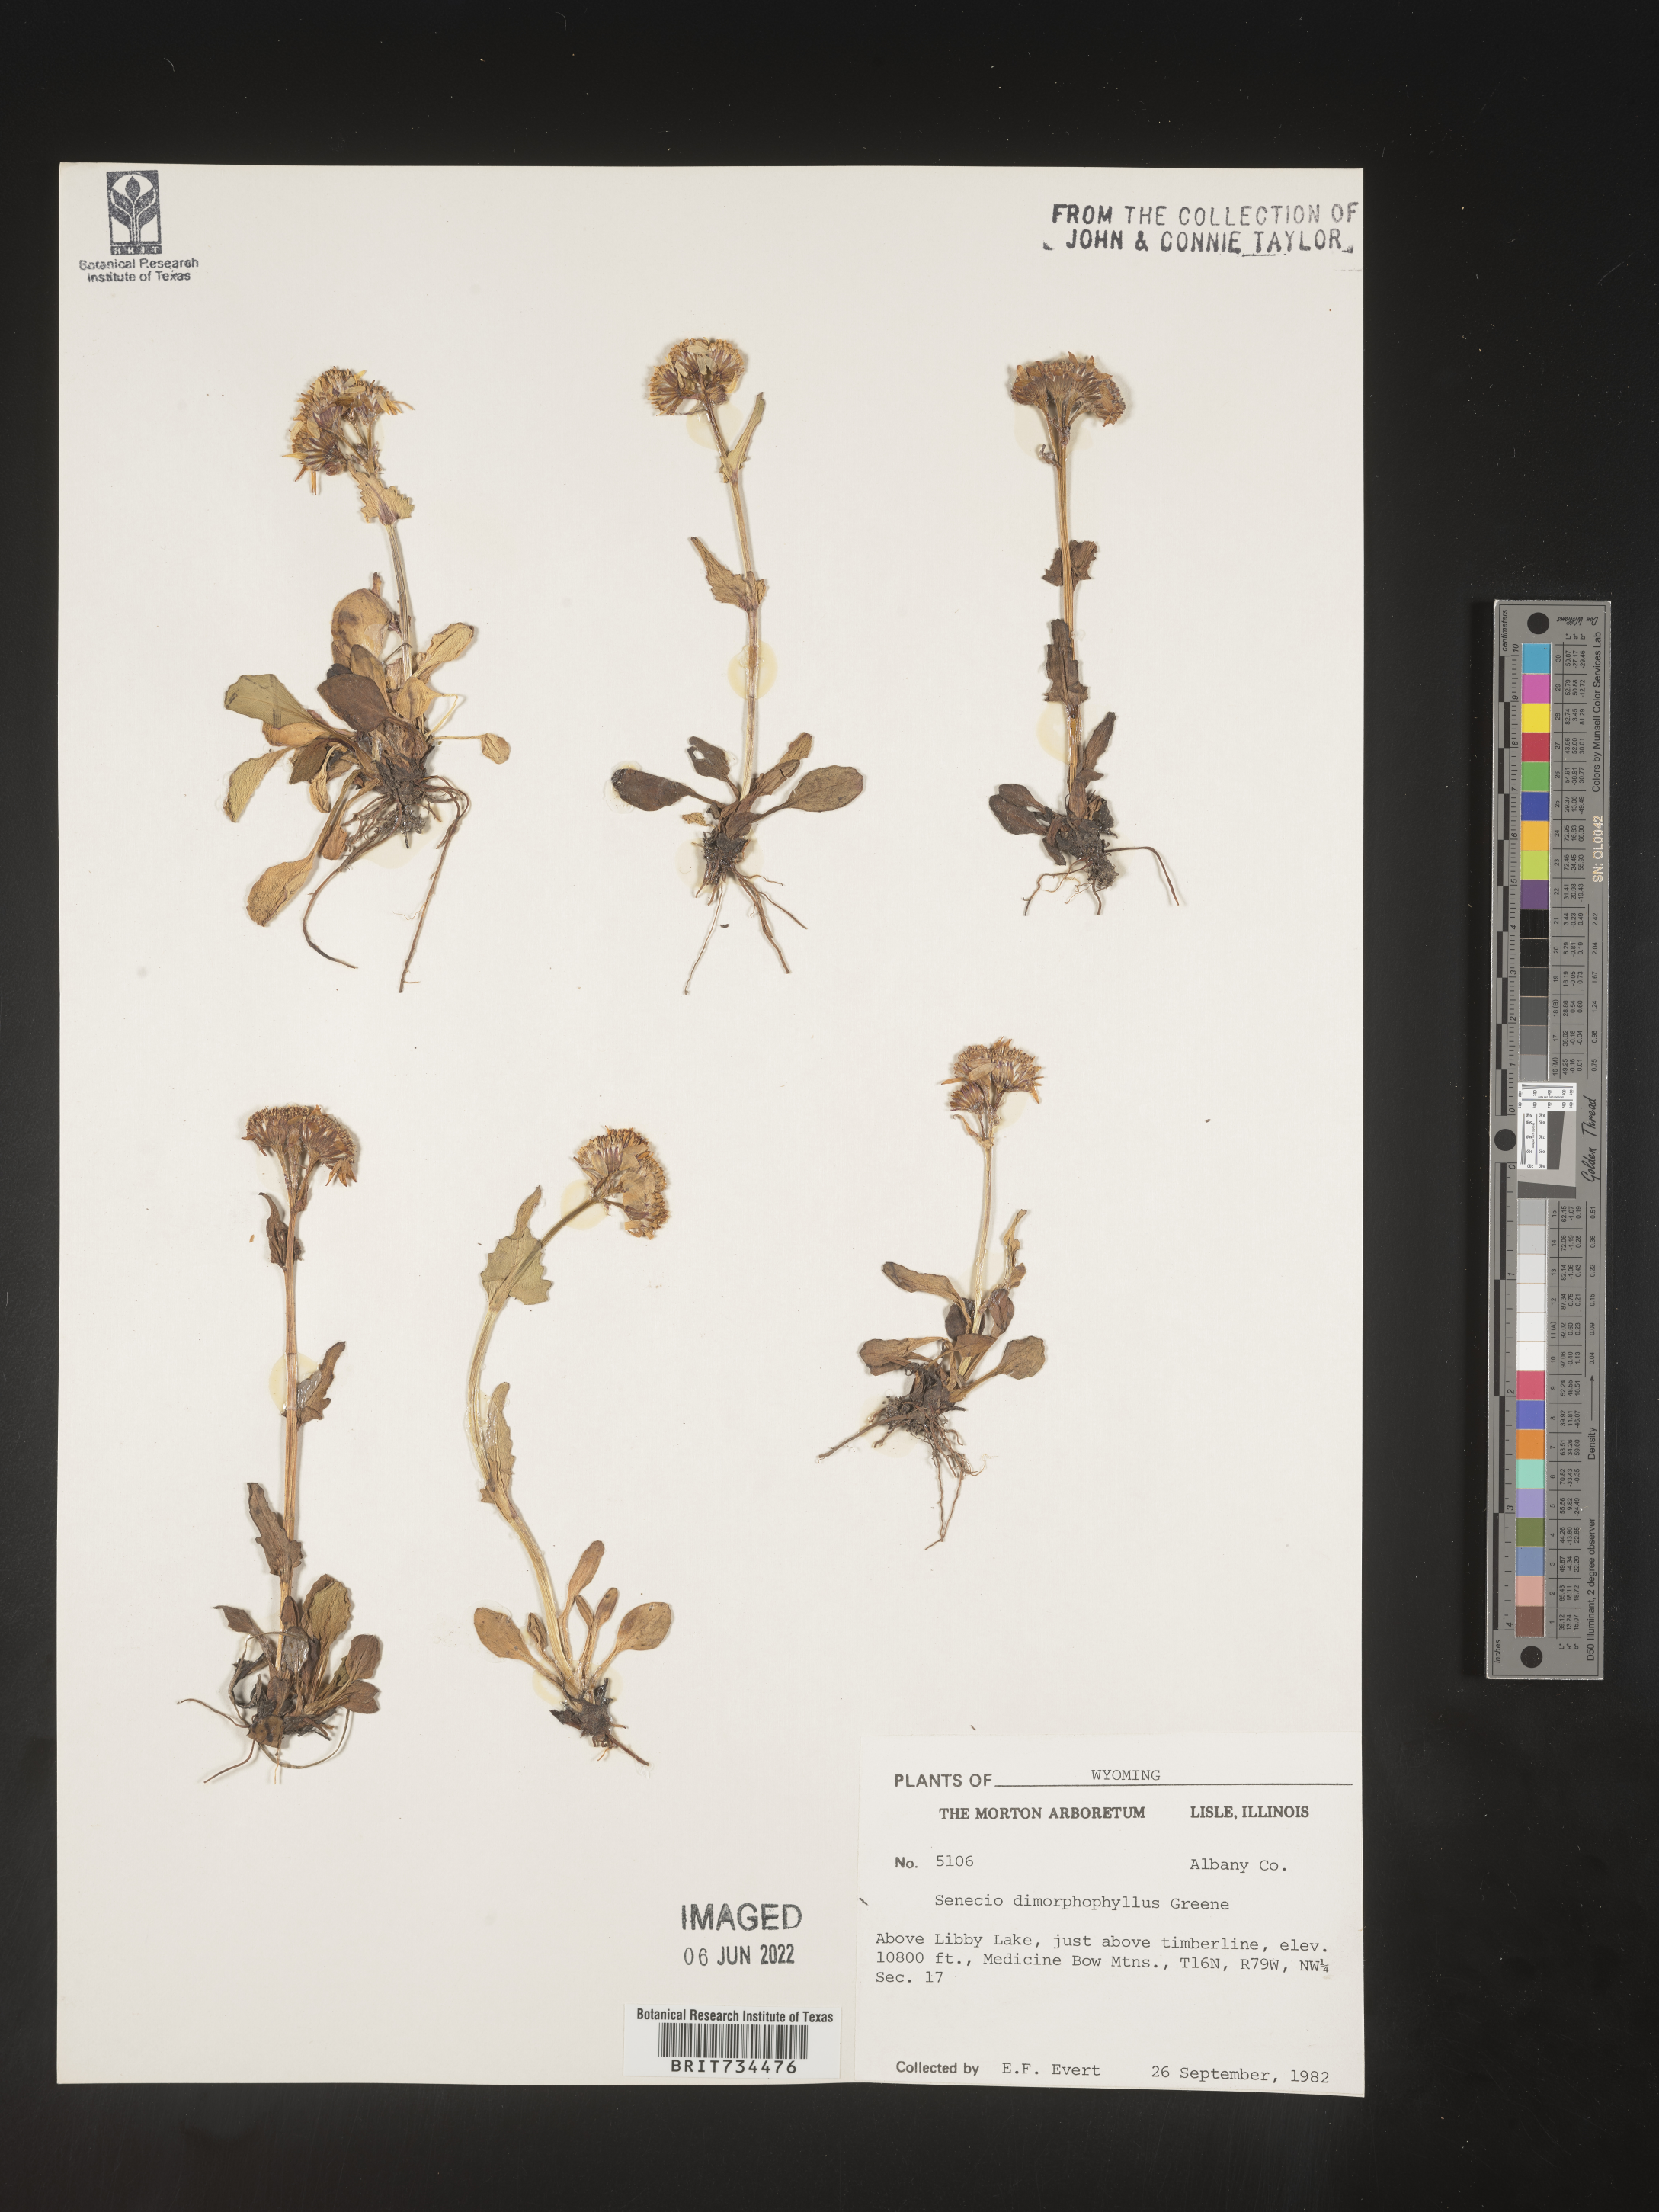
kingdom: Plantae
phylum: Tracheophyta
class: Magnoliopsida
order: Asterales
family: Asteraceae
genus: Packera
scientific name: Packera dimorphophylla
